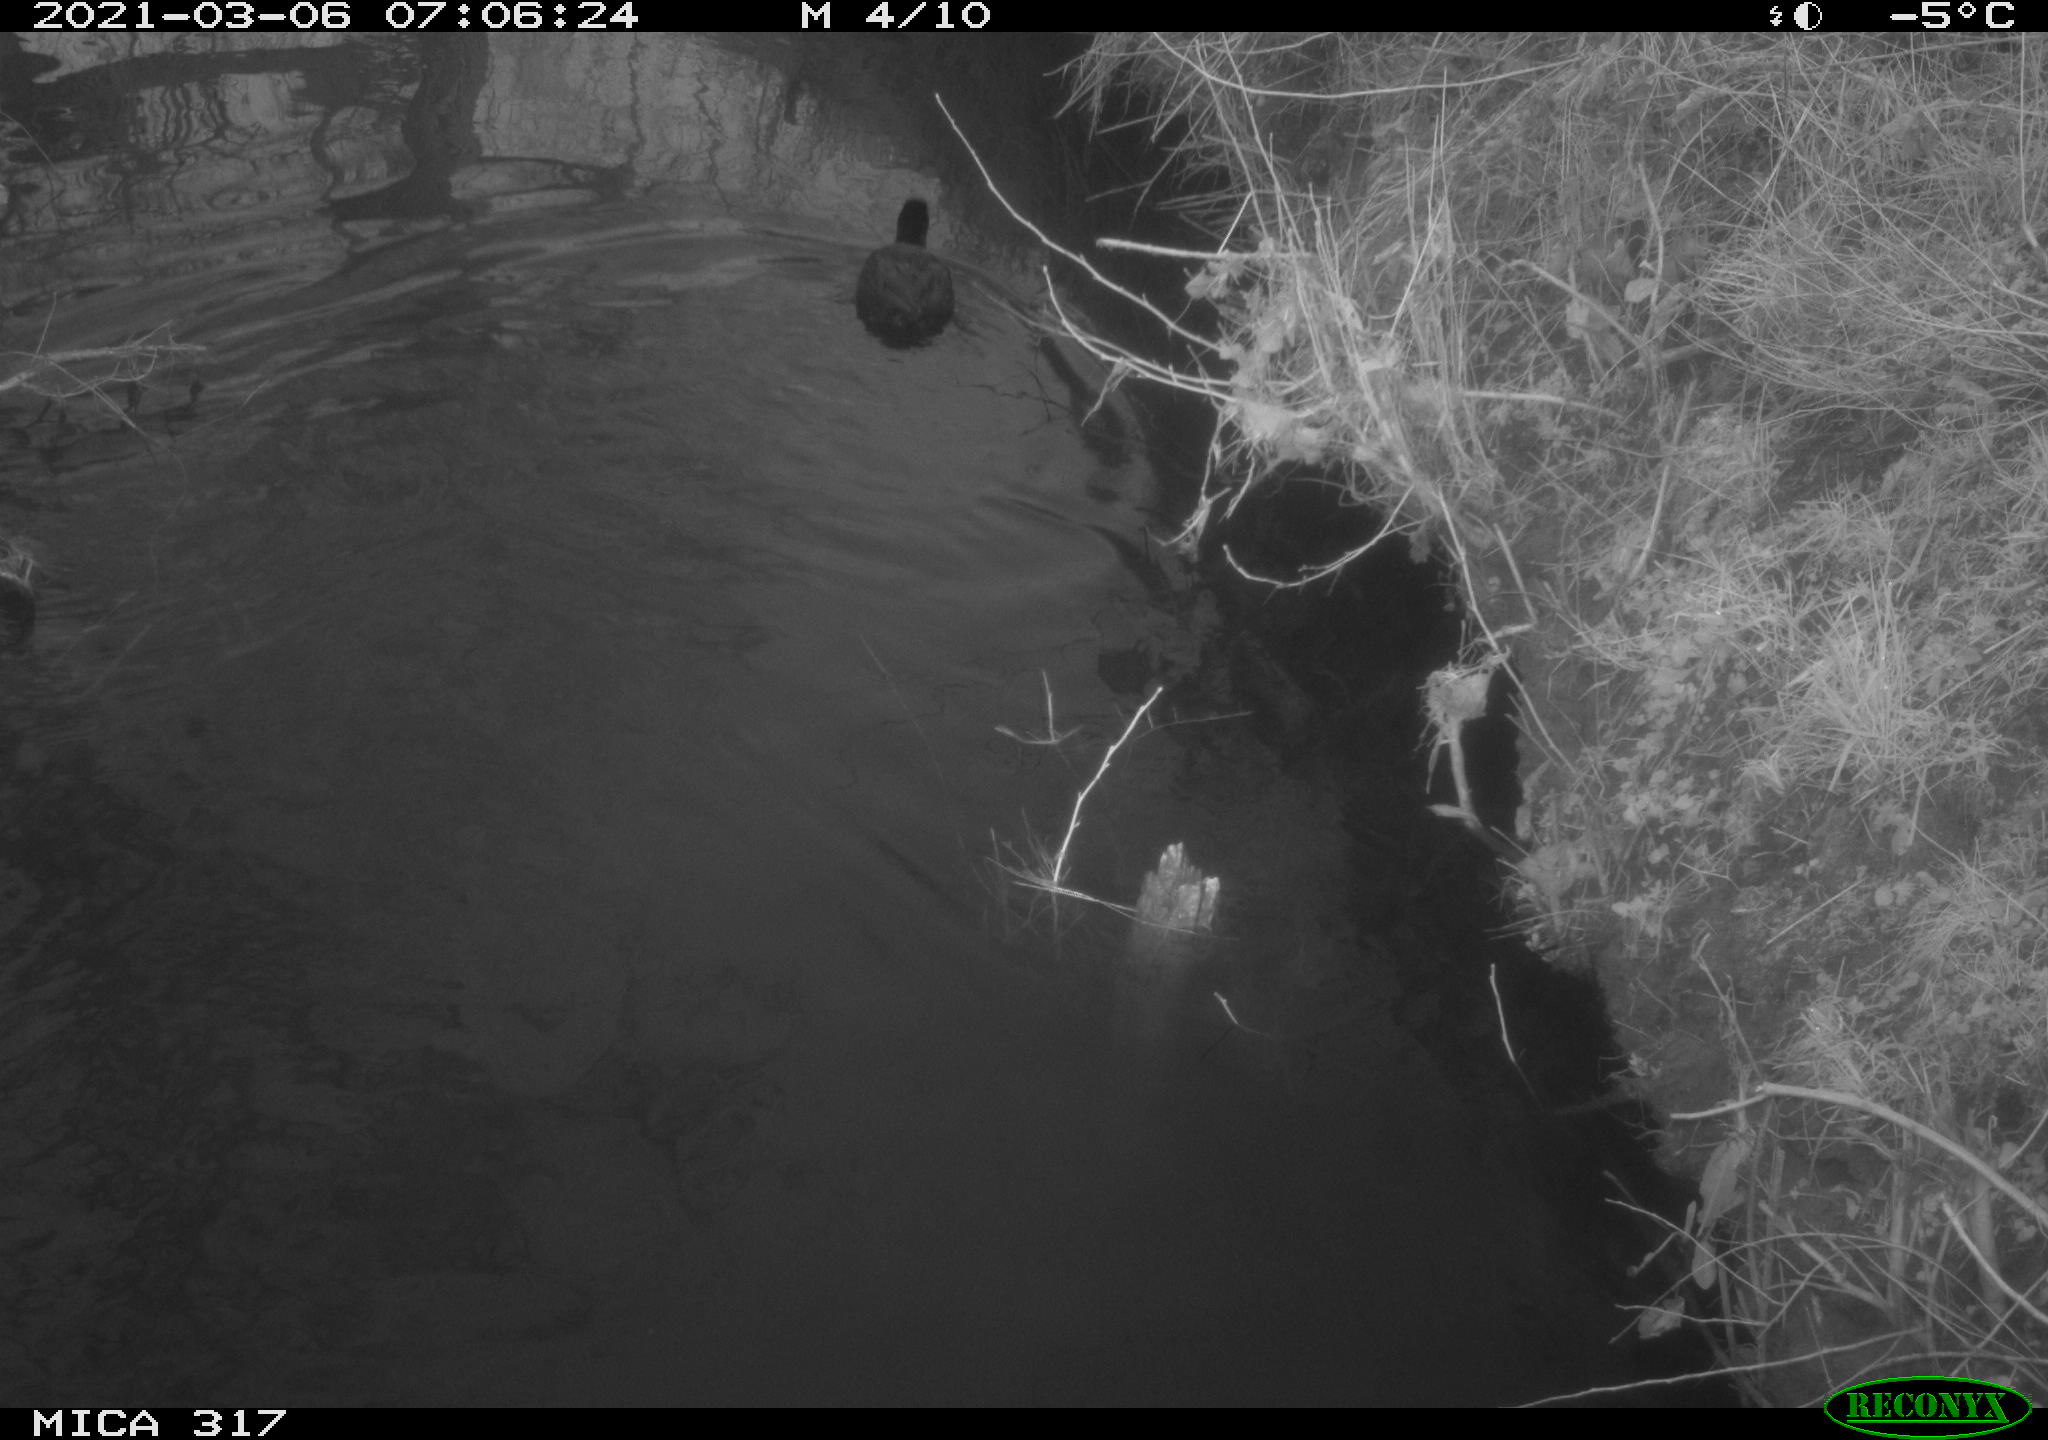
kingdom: Animalia
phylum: Chordata
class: Aves
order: Gruiformes
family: Rallidae
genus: Fulica
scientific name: Fulica atra
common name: Eurasian coot
